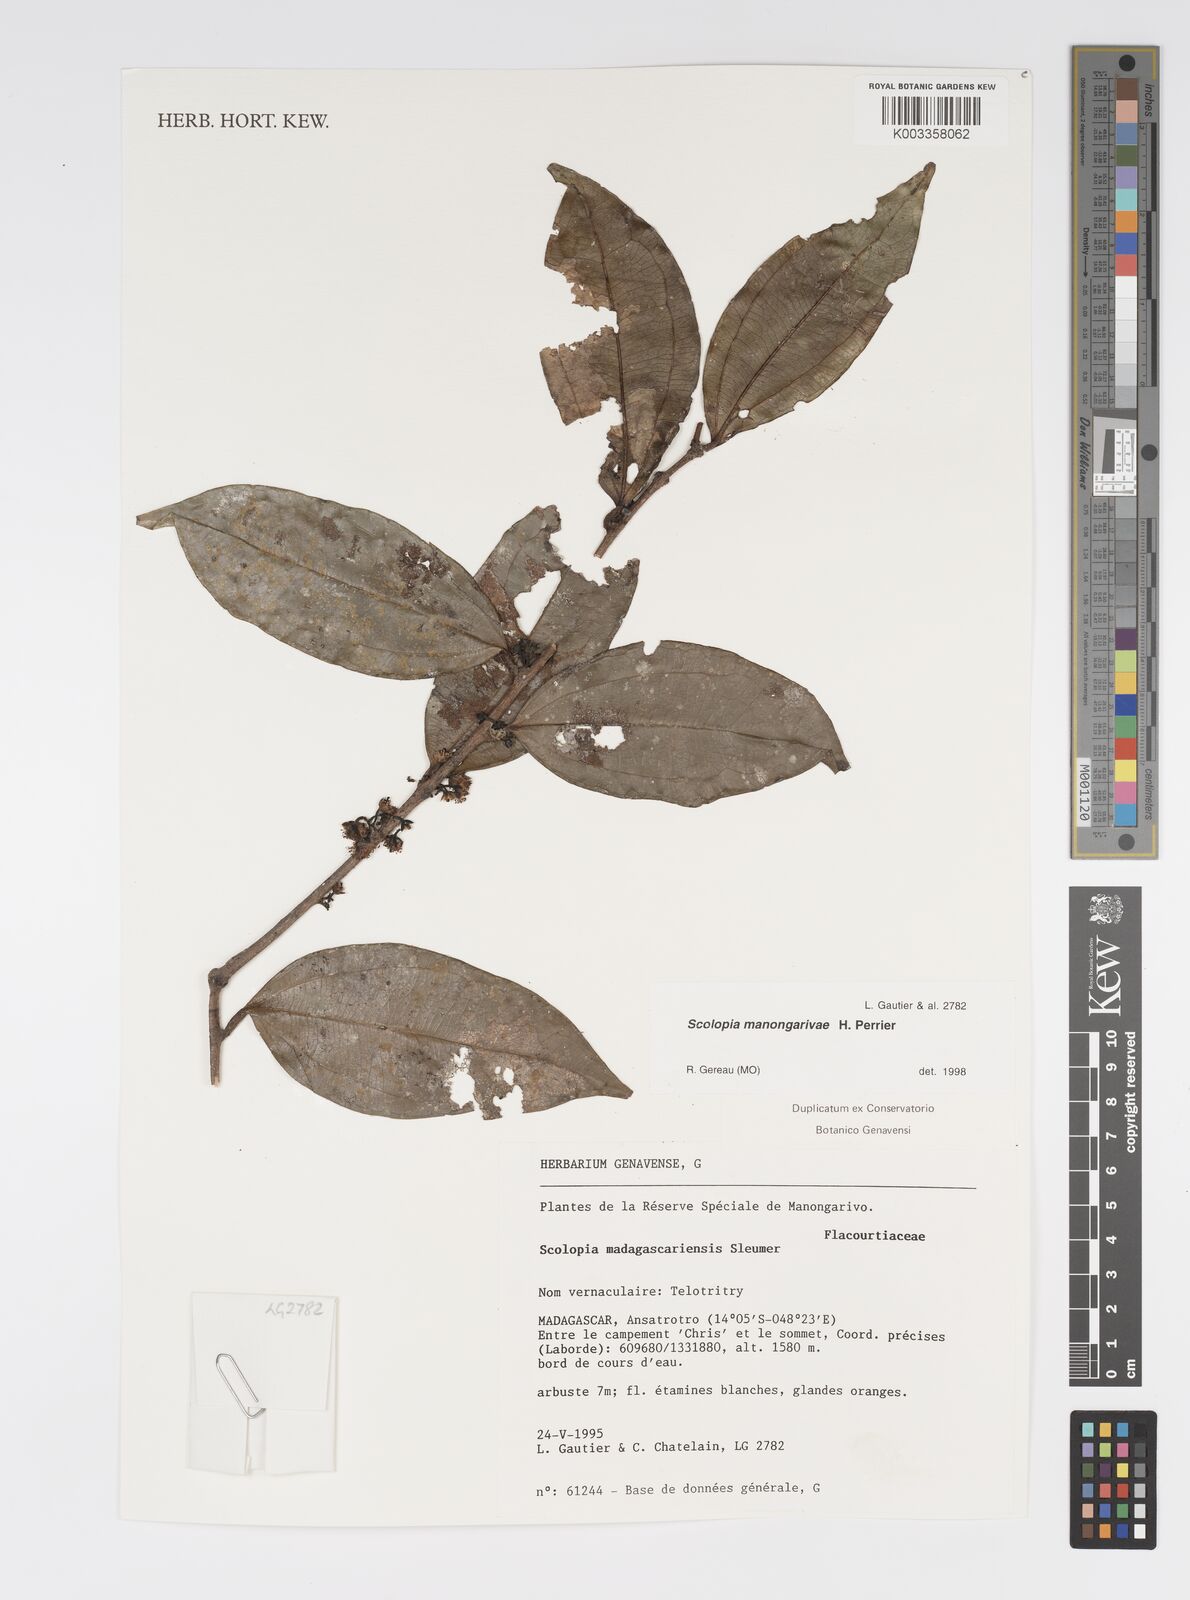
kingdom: Plantae
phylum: Tracheophyta
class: Magnoliopsida
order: Malpighiales
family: Salicaceae
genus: Scolopia
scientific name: Scolopia manongarivae
